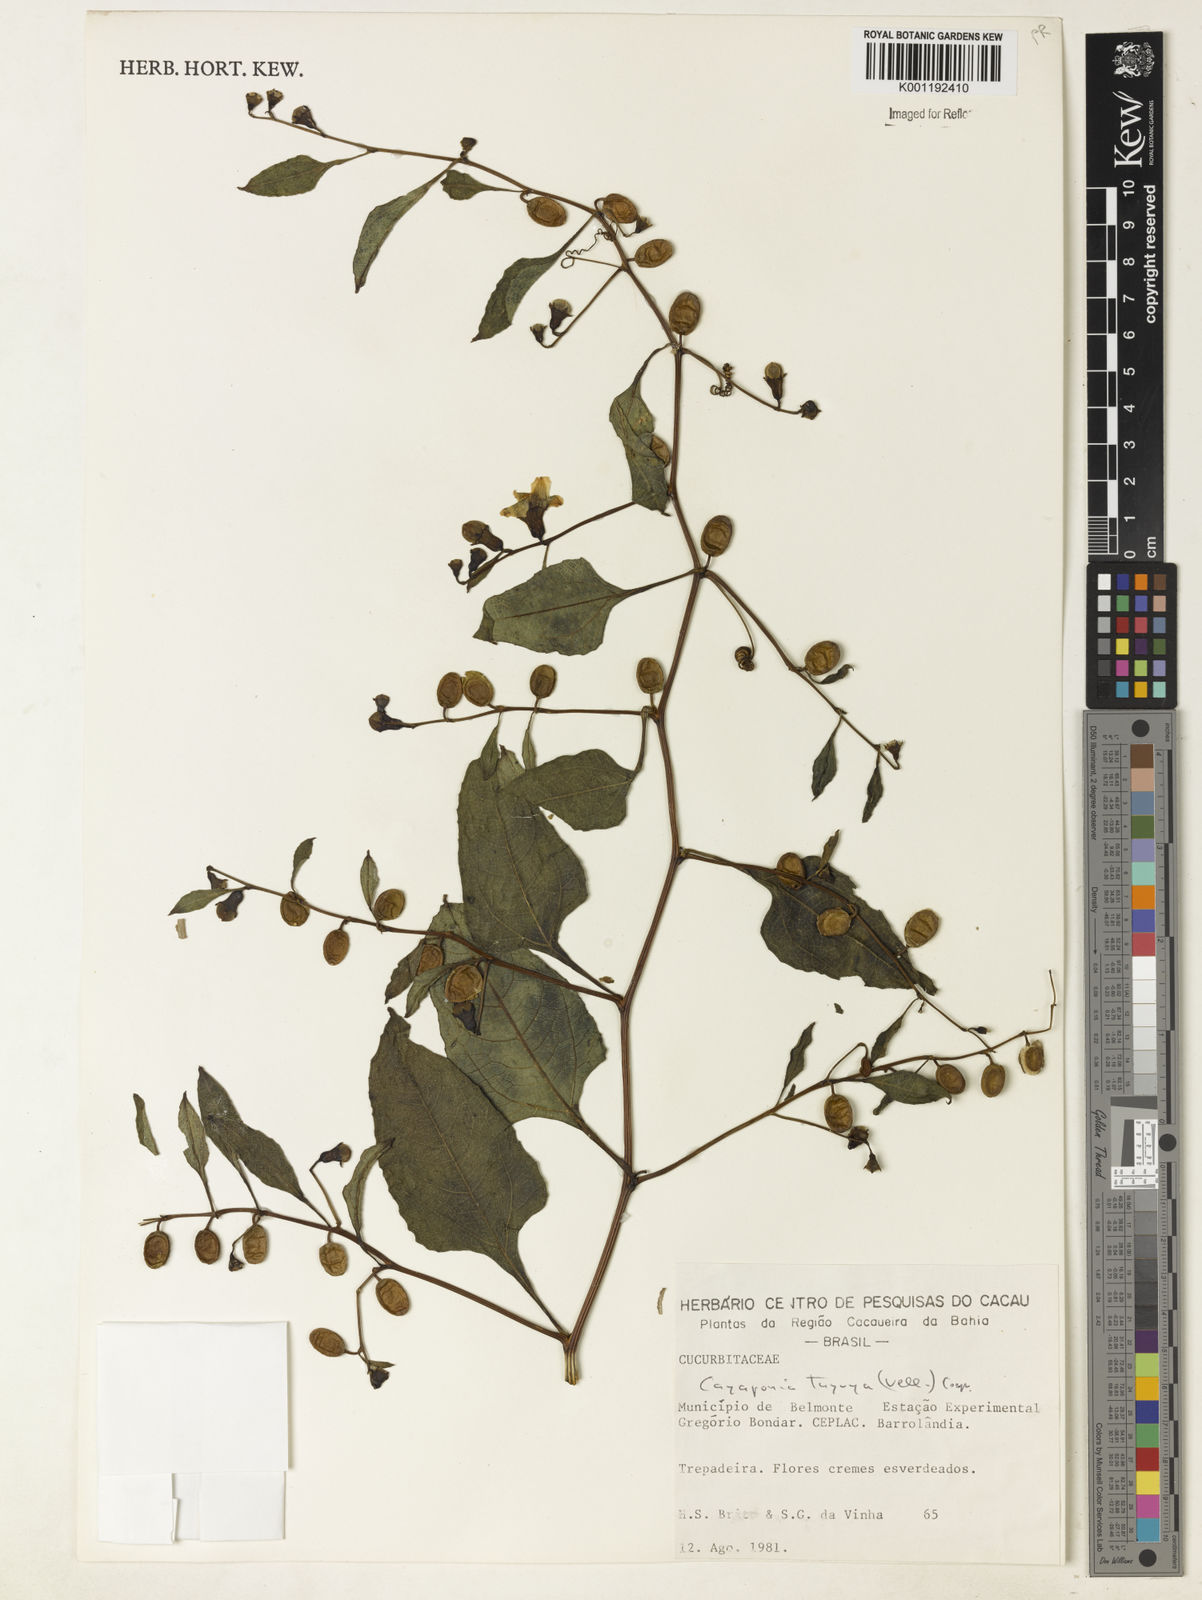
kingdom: Plantae
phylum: Tracheophyta
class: Magnoliopsida
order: Cucurbitales
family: Cucurbitaceae
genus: Cayaponia
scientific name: Cayaponia tayuya
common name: Tayuya
